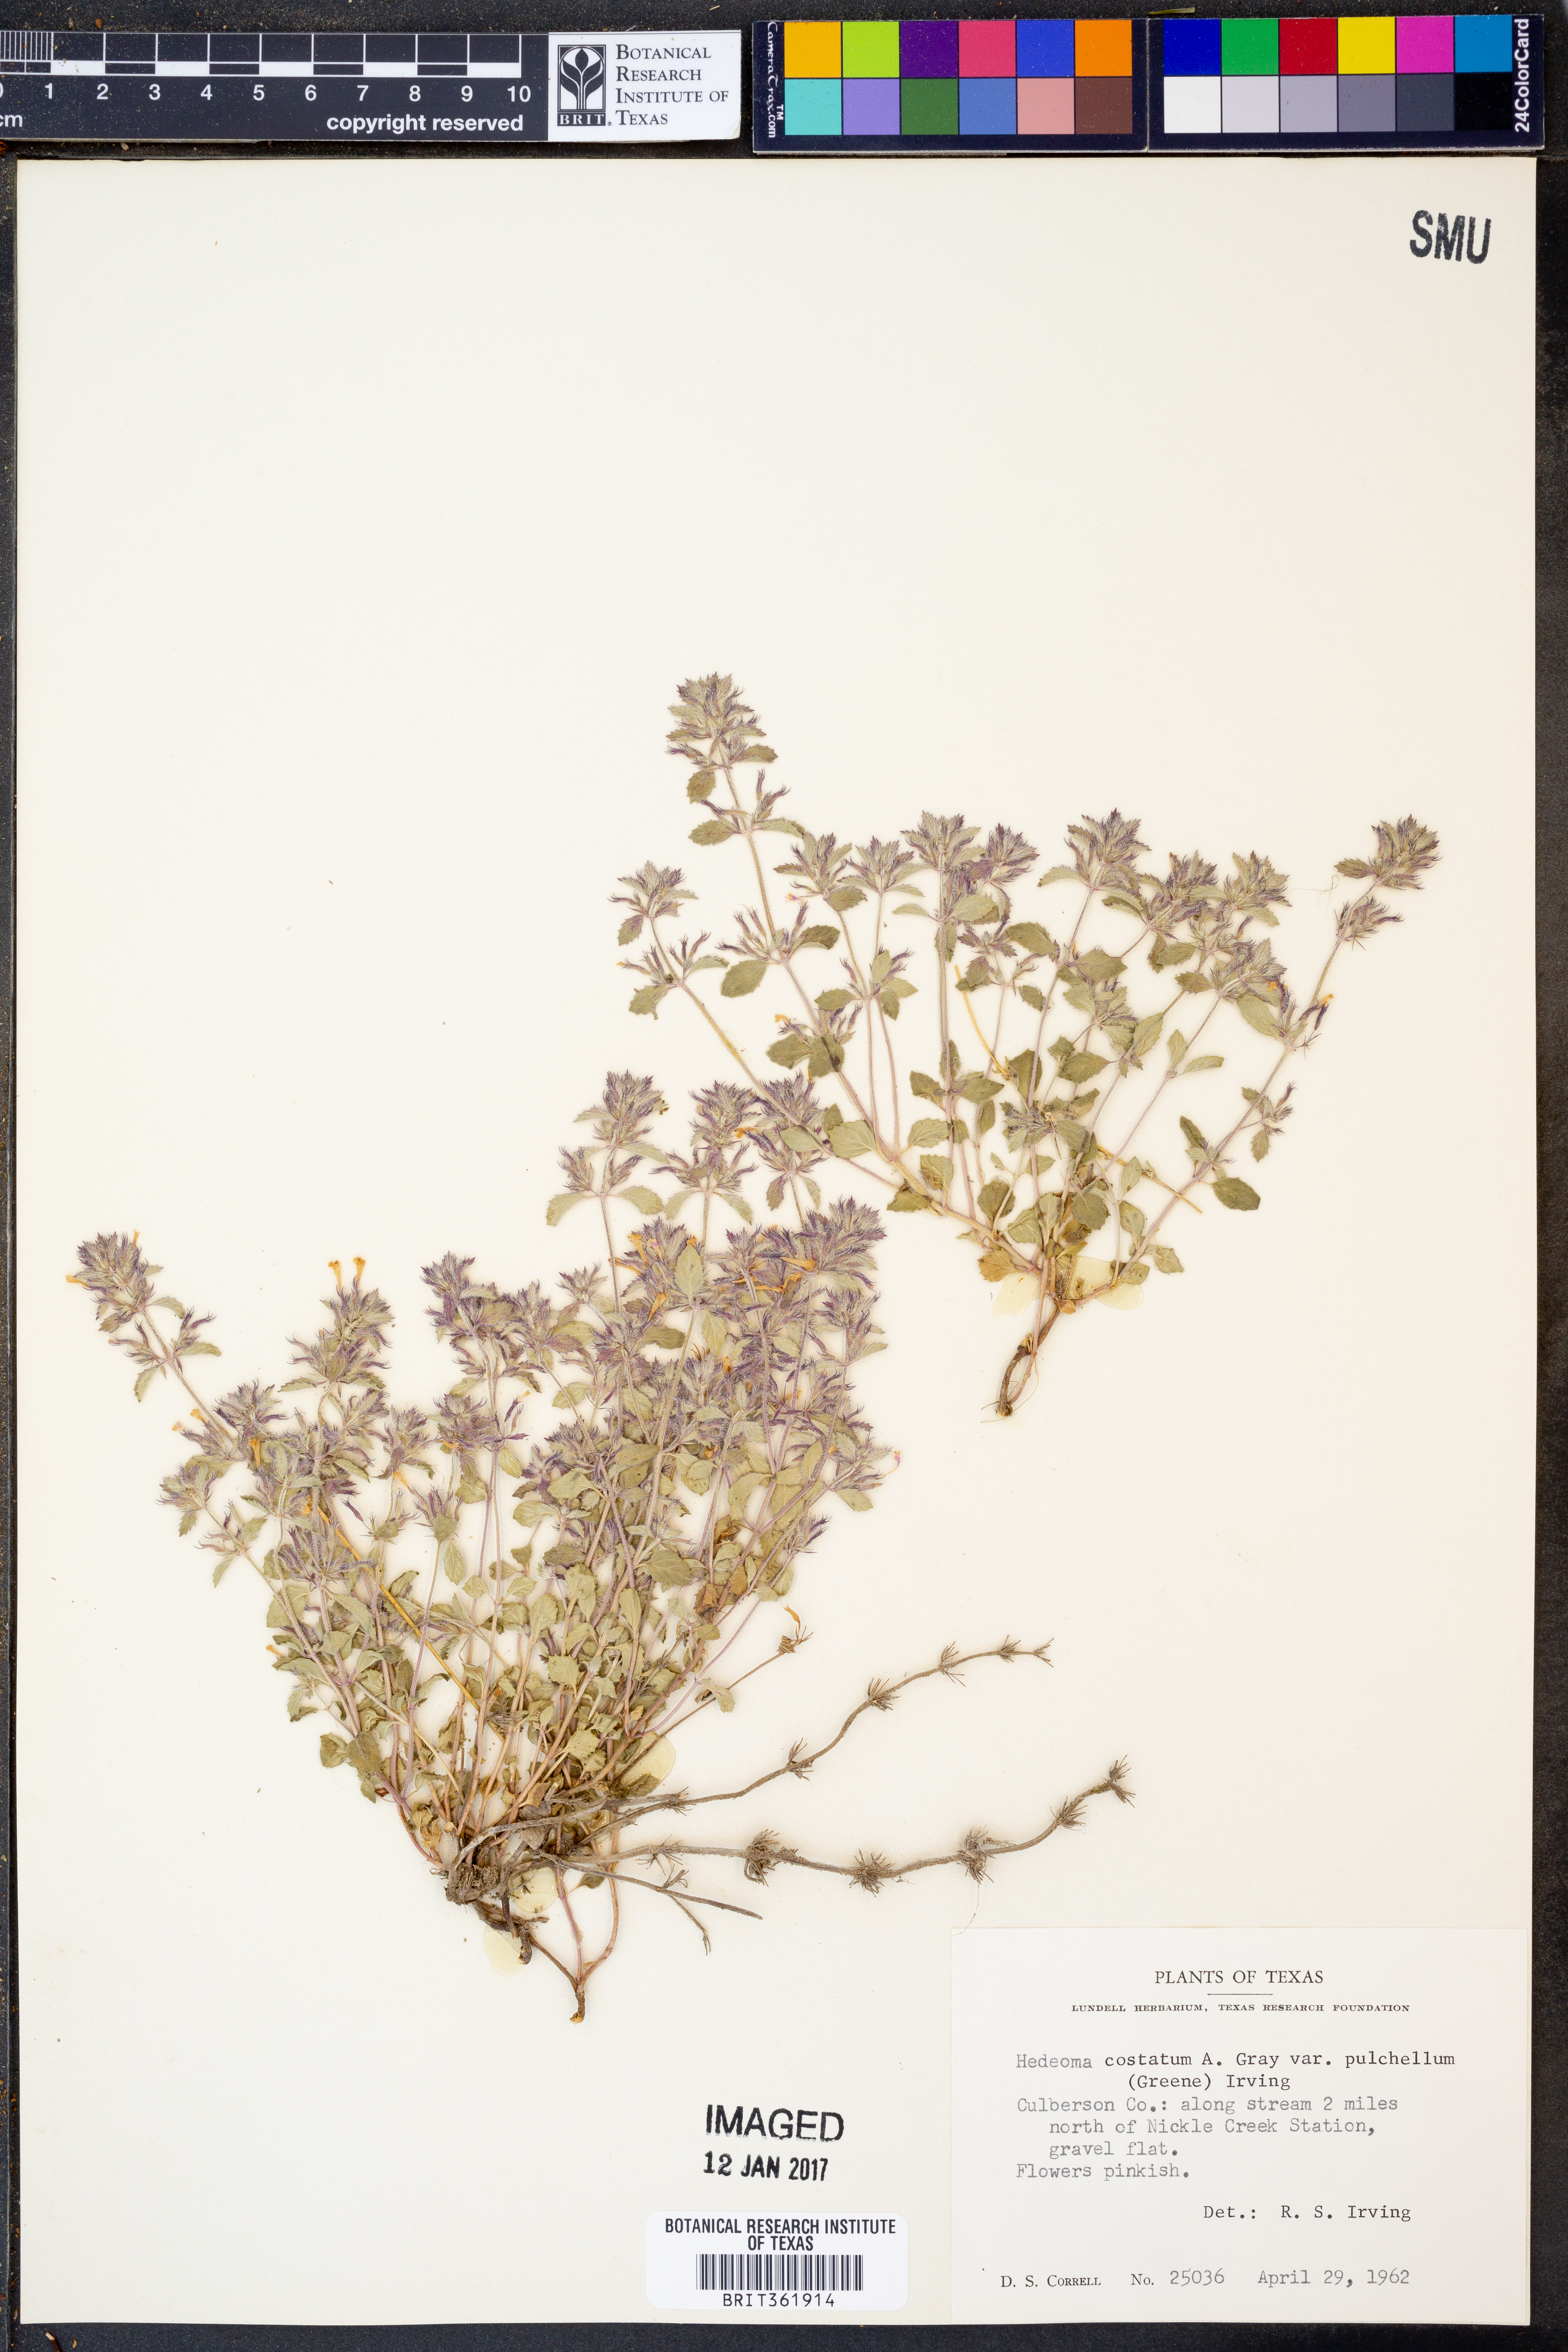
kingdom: Plantae
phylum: Tracheophyta
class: Magnoliopsida
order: Lamiales
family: Lamiaceae
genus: Hedeoma
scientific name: Hedeoma costata
